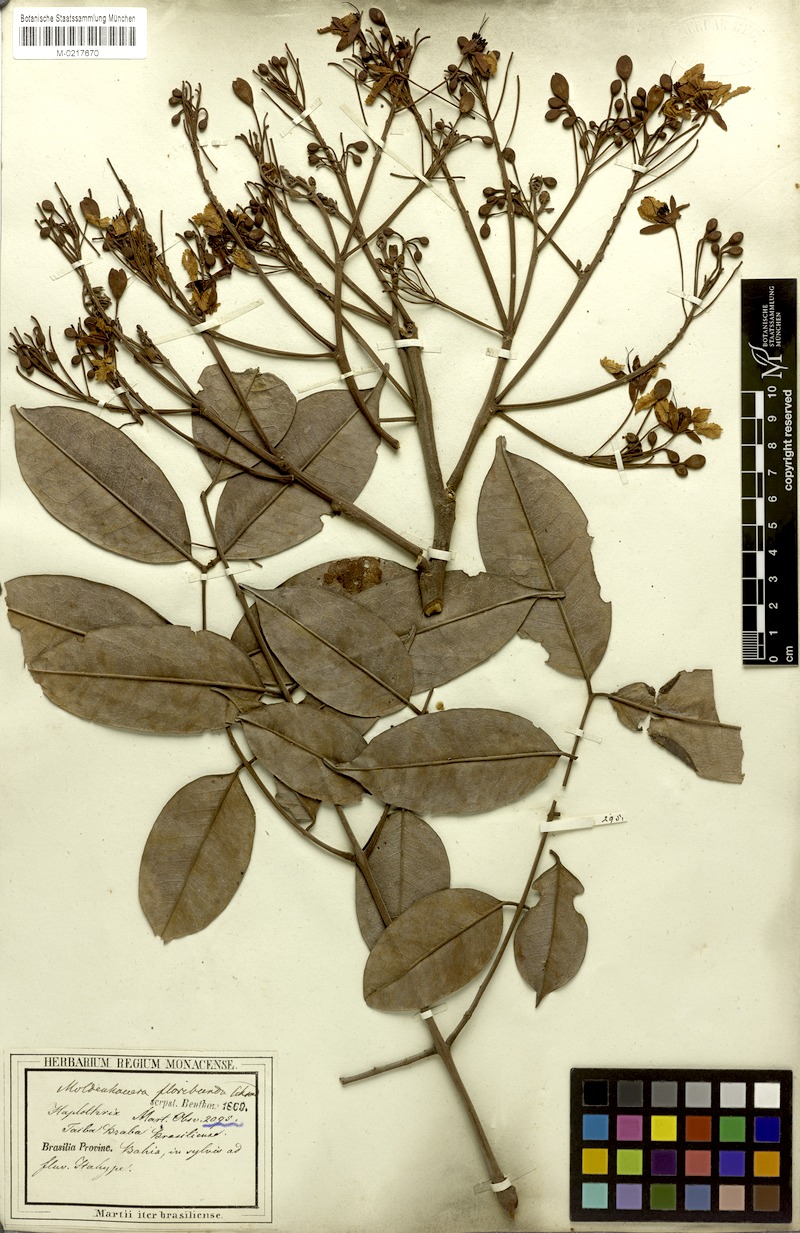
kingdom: Plantae
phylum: Tracheophyta
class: Magnoliopsida
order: Fabales
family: Fabaceae
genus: Moldenhawera
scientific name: Moldenhawera floribunda
